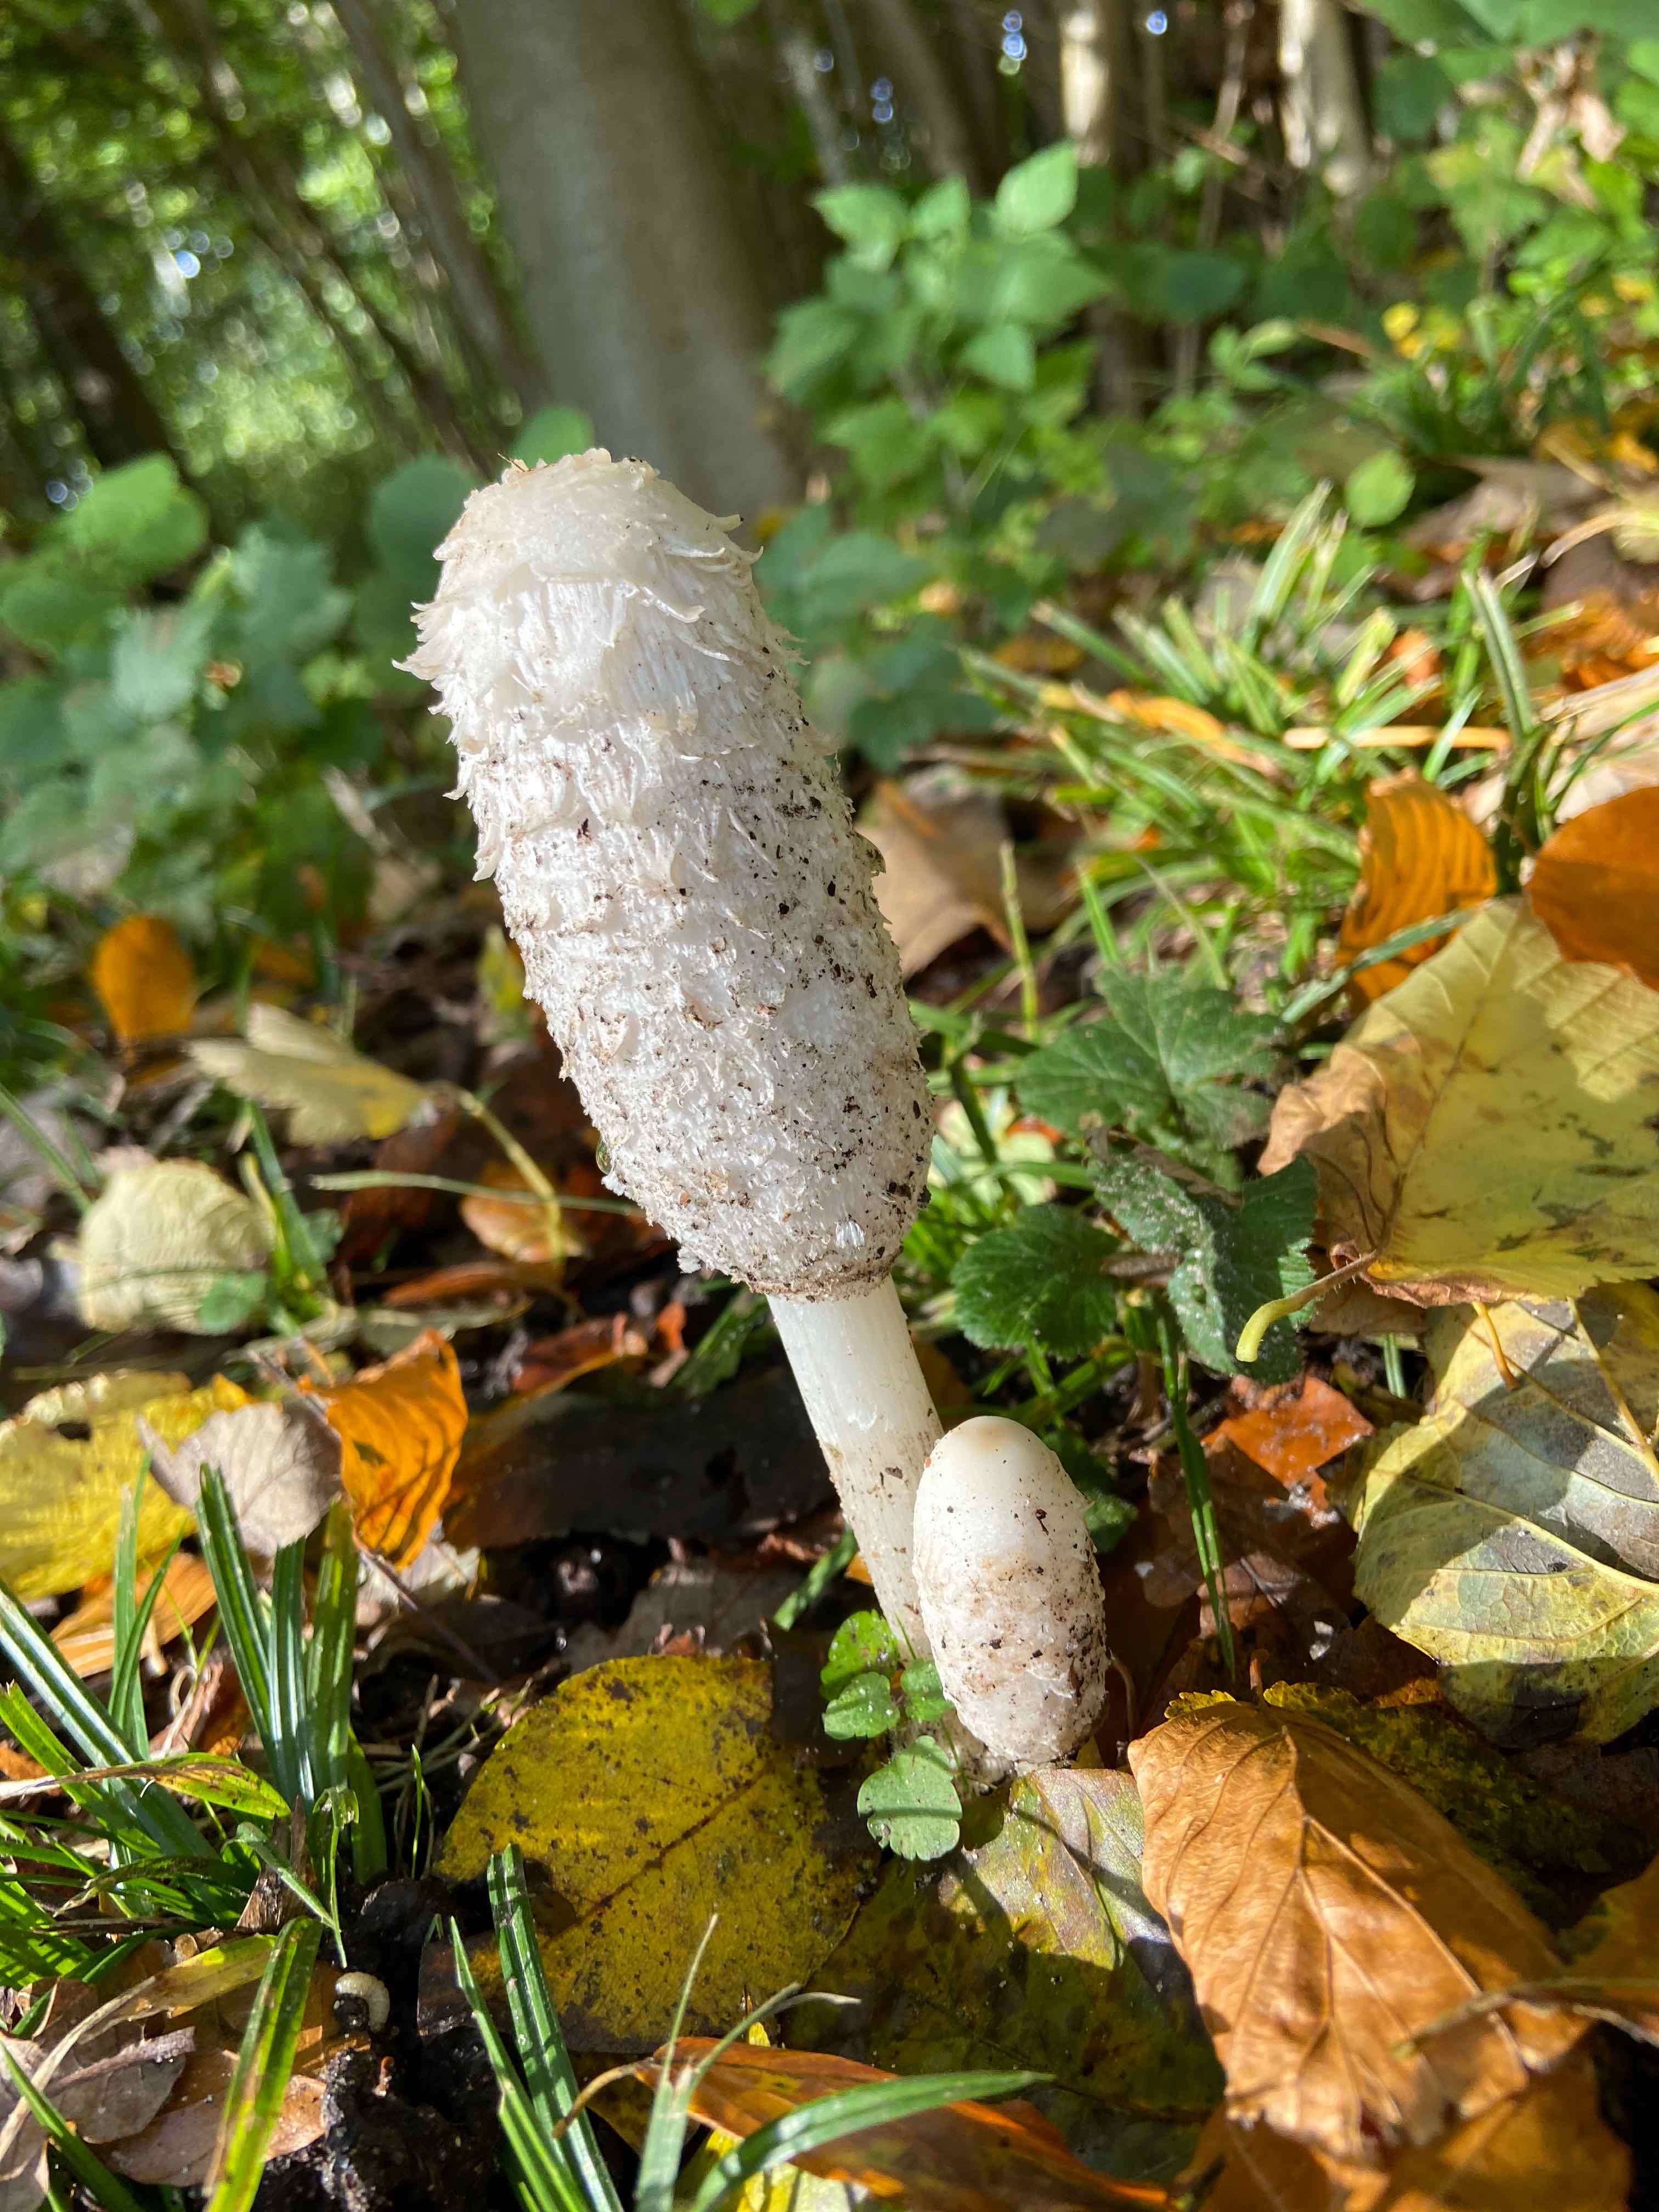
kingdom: Fungi
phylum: Basidiomycota
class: Agaricomycetes
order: Agaricales
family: Agaricaceae
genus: Coprinus
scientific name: Coprinus comatus
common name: stor parykhat
